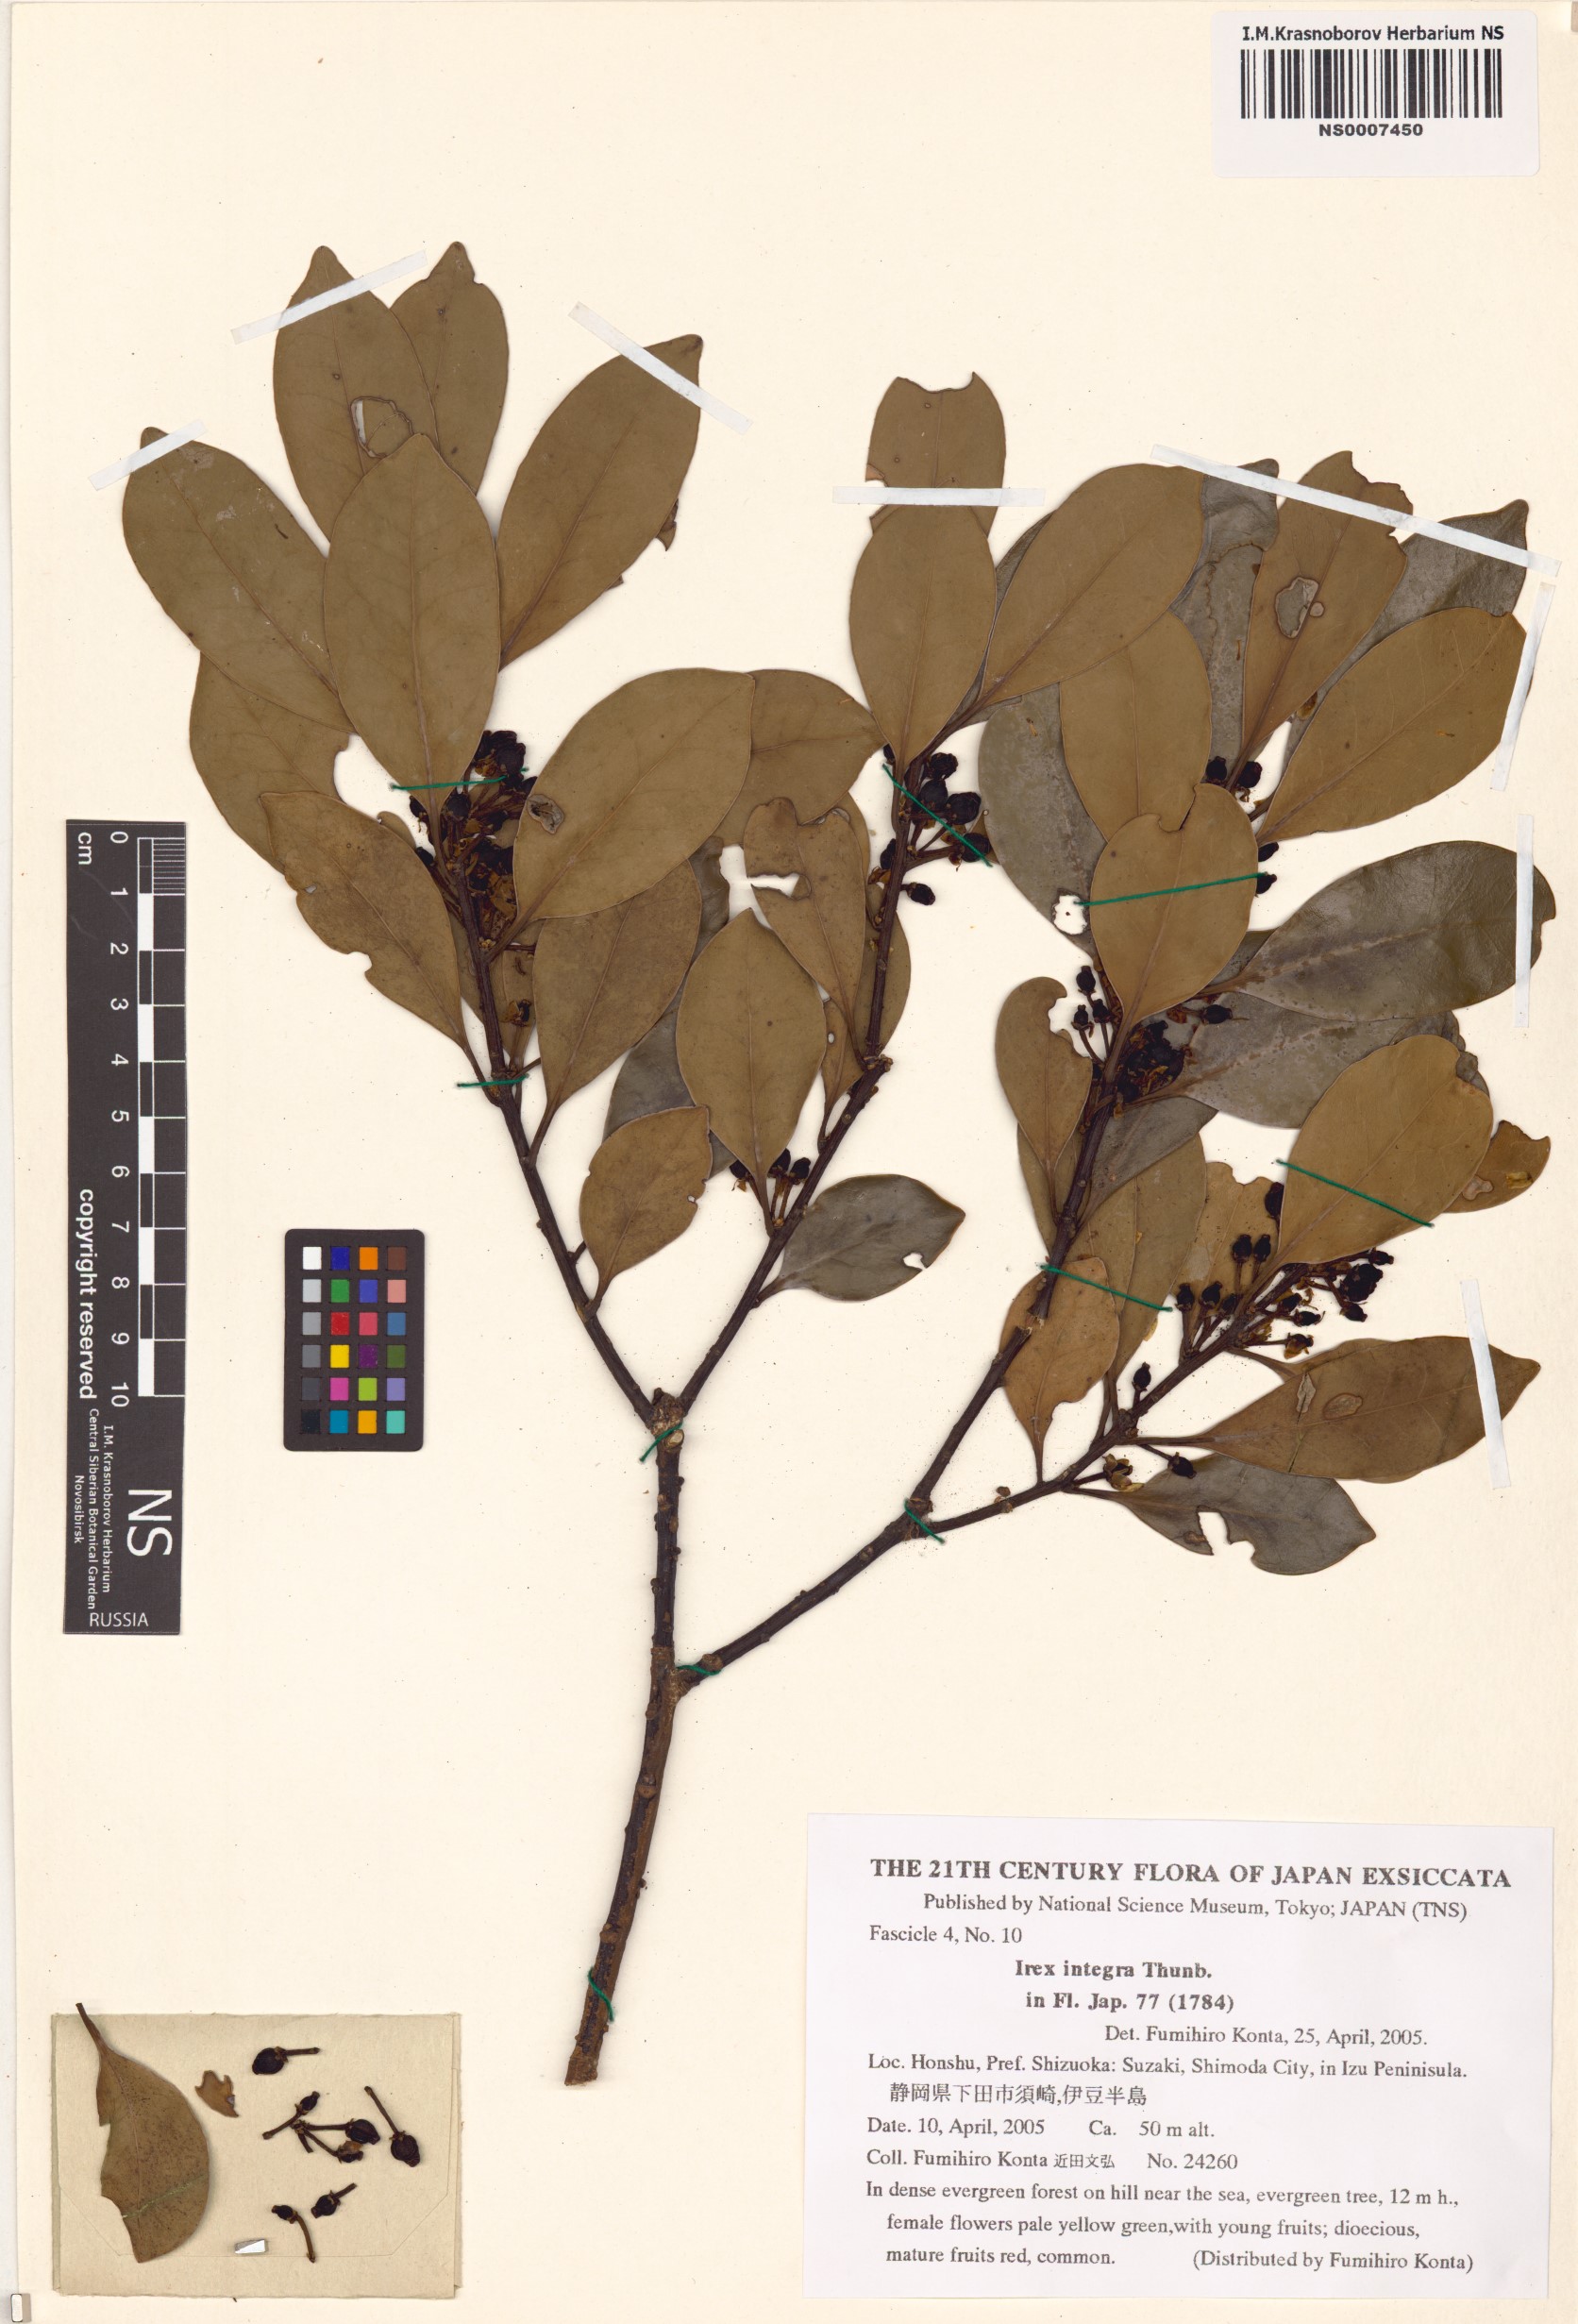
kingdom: Plantae
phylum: Tracheophyta
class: Magnoliopsida
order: Aquifoliales
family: Aquifoliaceae
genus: Ilex
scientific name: Ilex integra
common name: Mochitree
